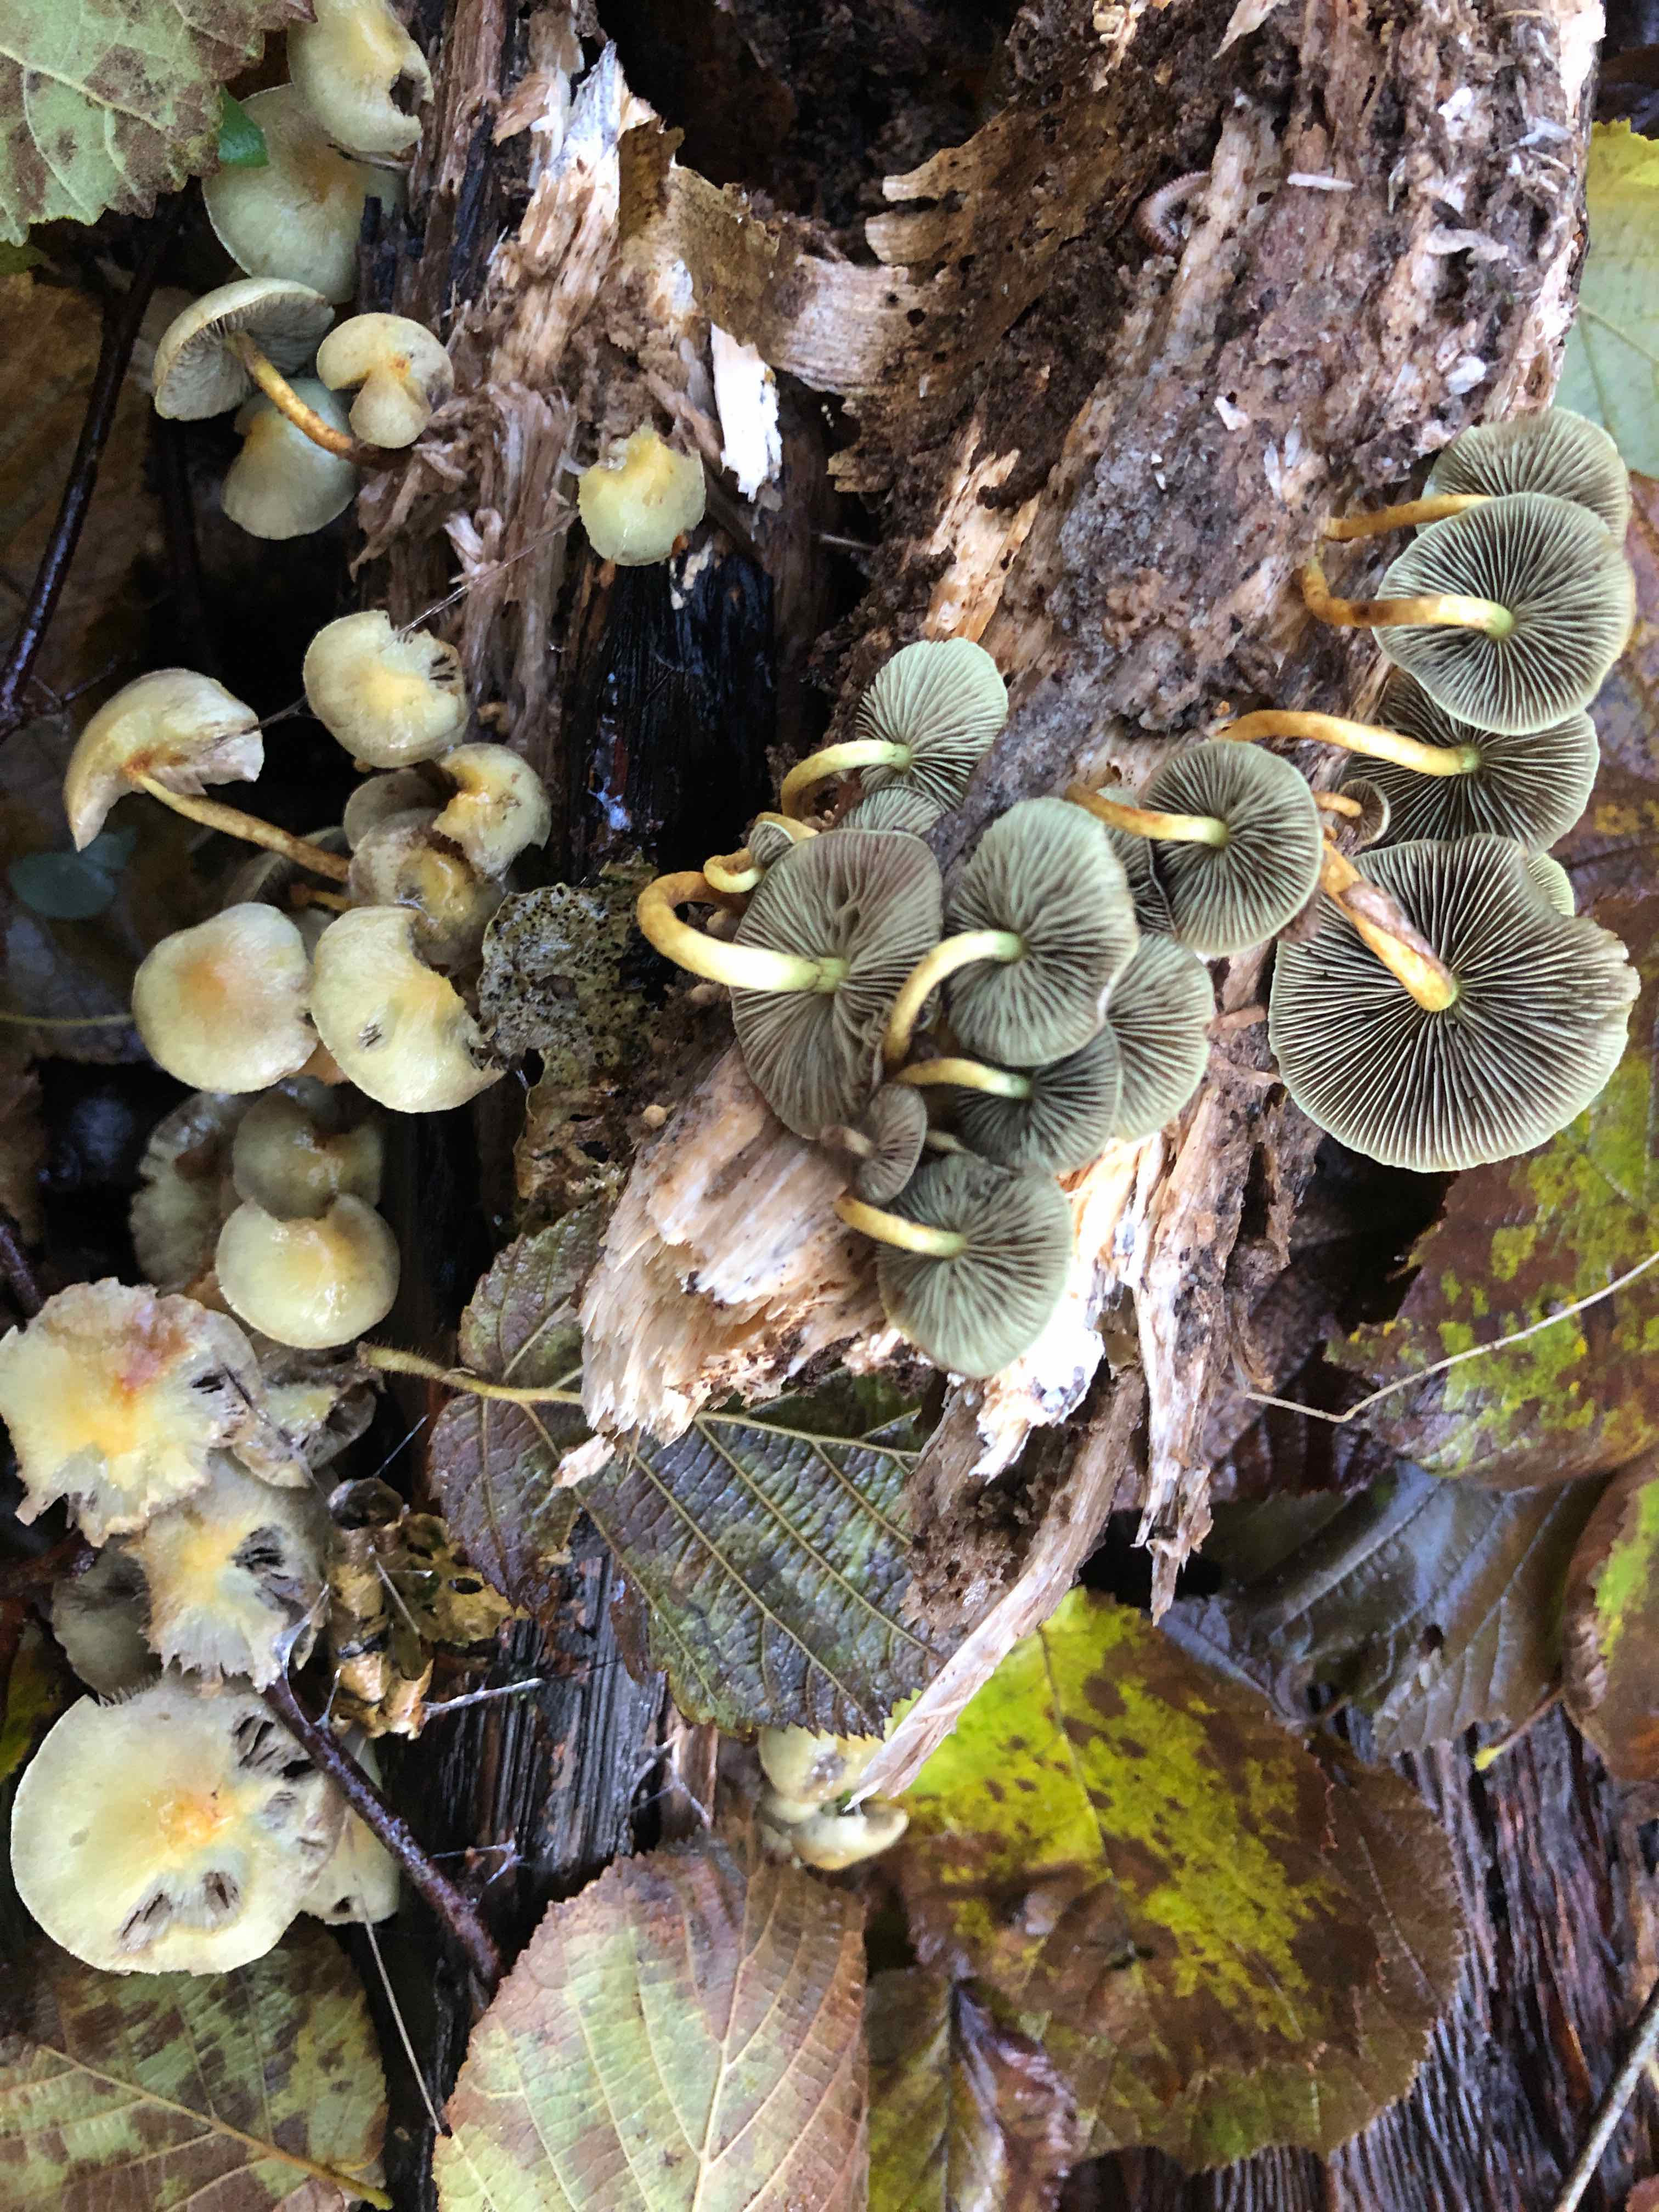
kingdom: Fungi
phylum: Basidiomycota
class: Agaricomycetes
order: Agaricales
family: Strophariaceae
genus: Hypholoma
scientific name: Hypholoma fasciculare
